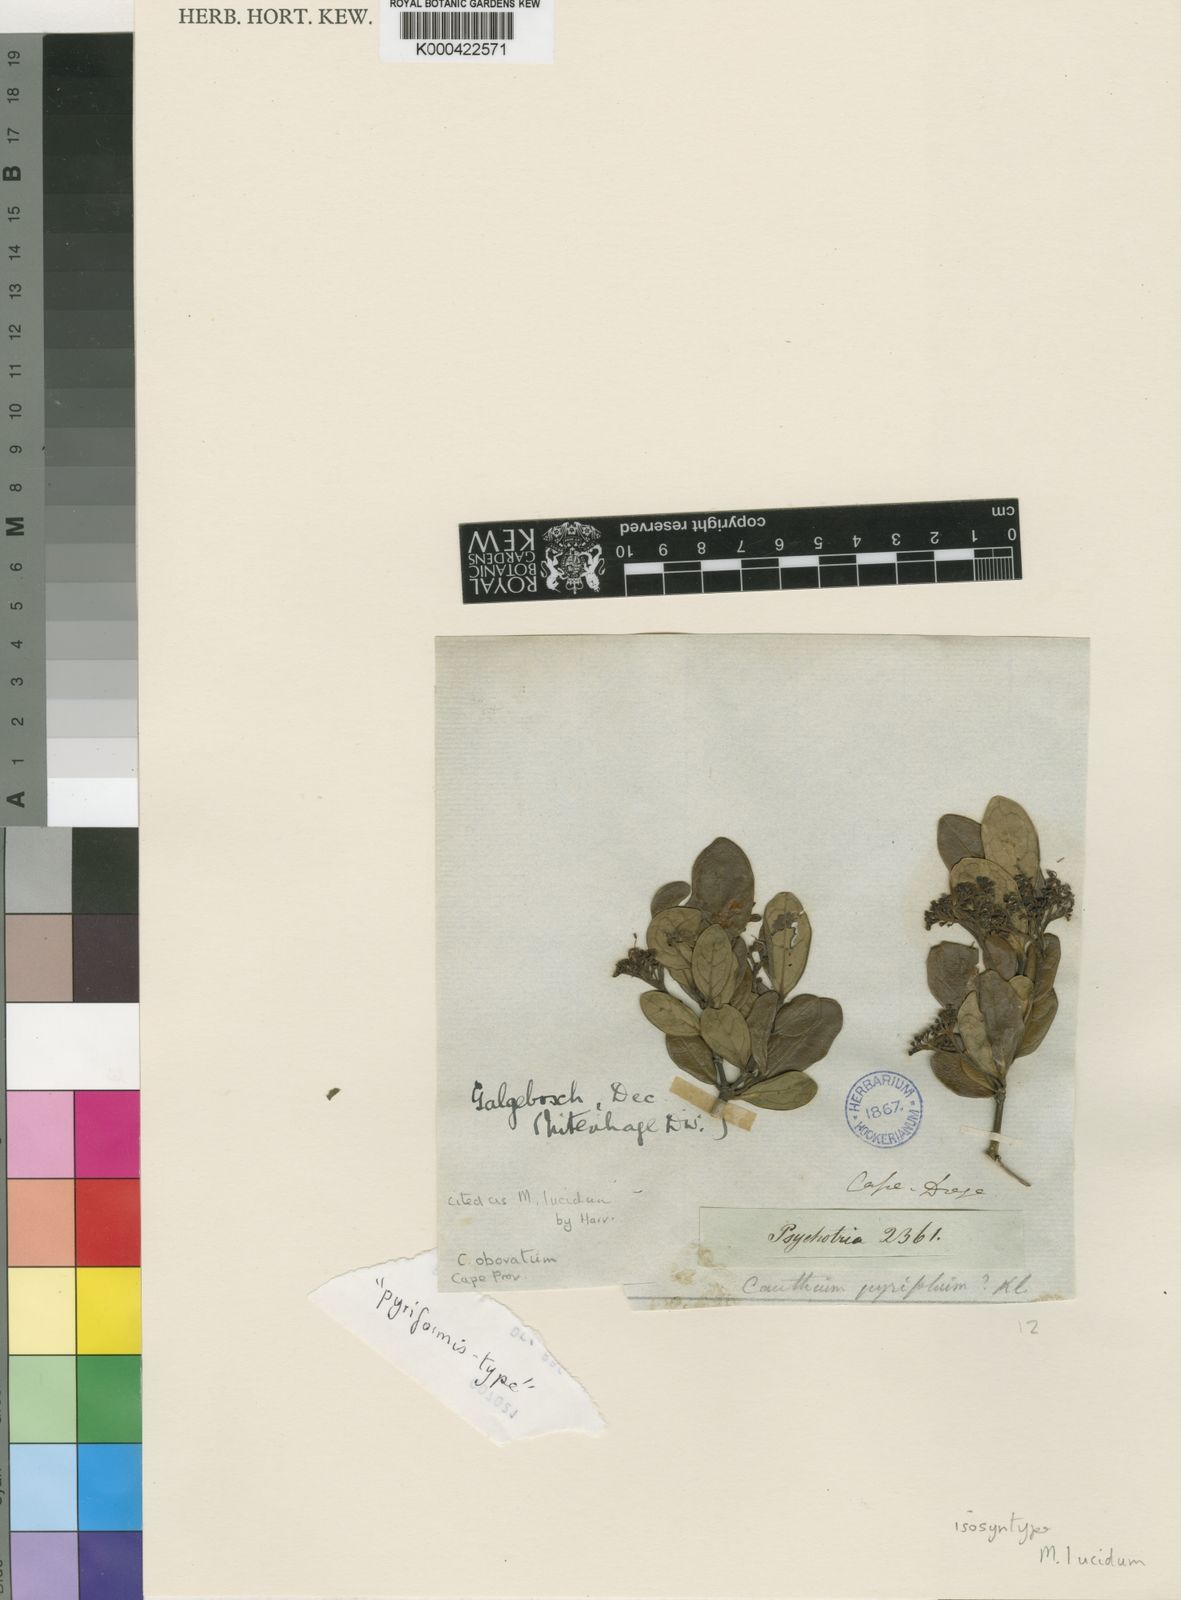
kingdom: Plantae
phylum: Tracheophyta
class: Magnoliopsida
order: Gentianales
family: Rubiaceae
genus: Psydrax
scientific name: Psydrax obovatus
